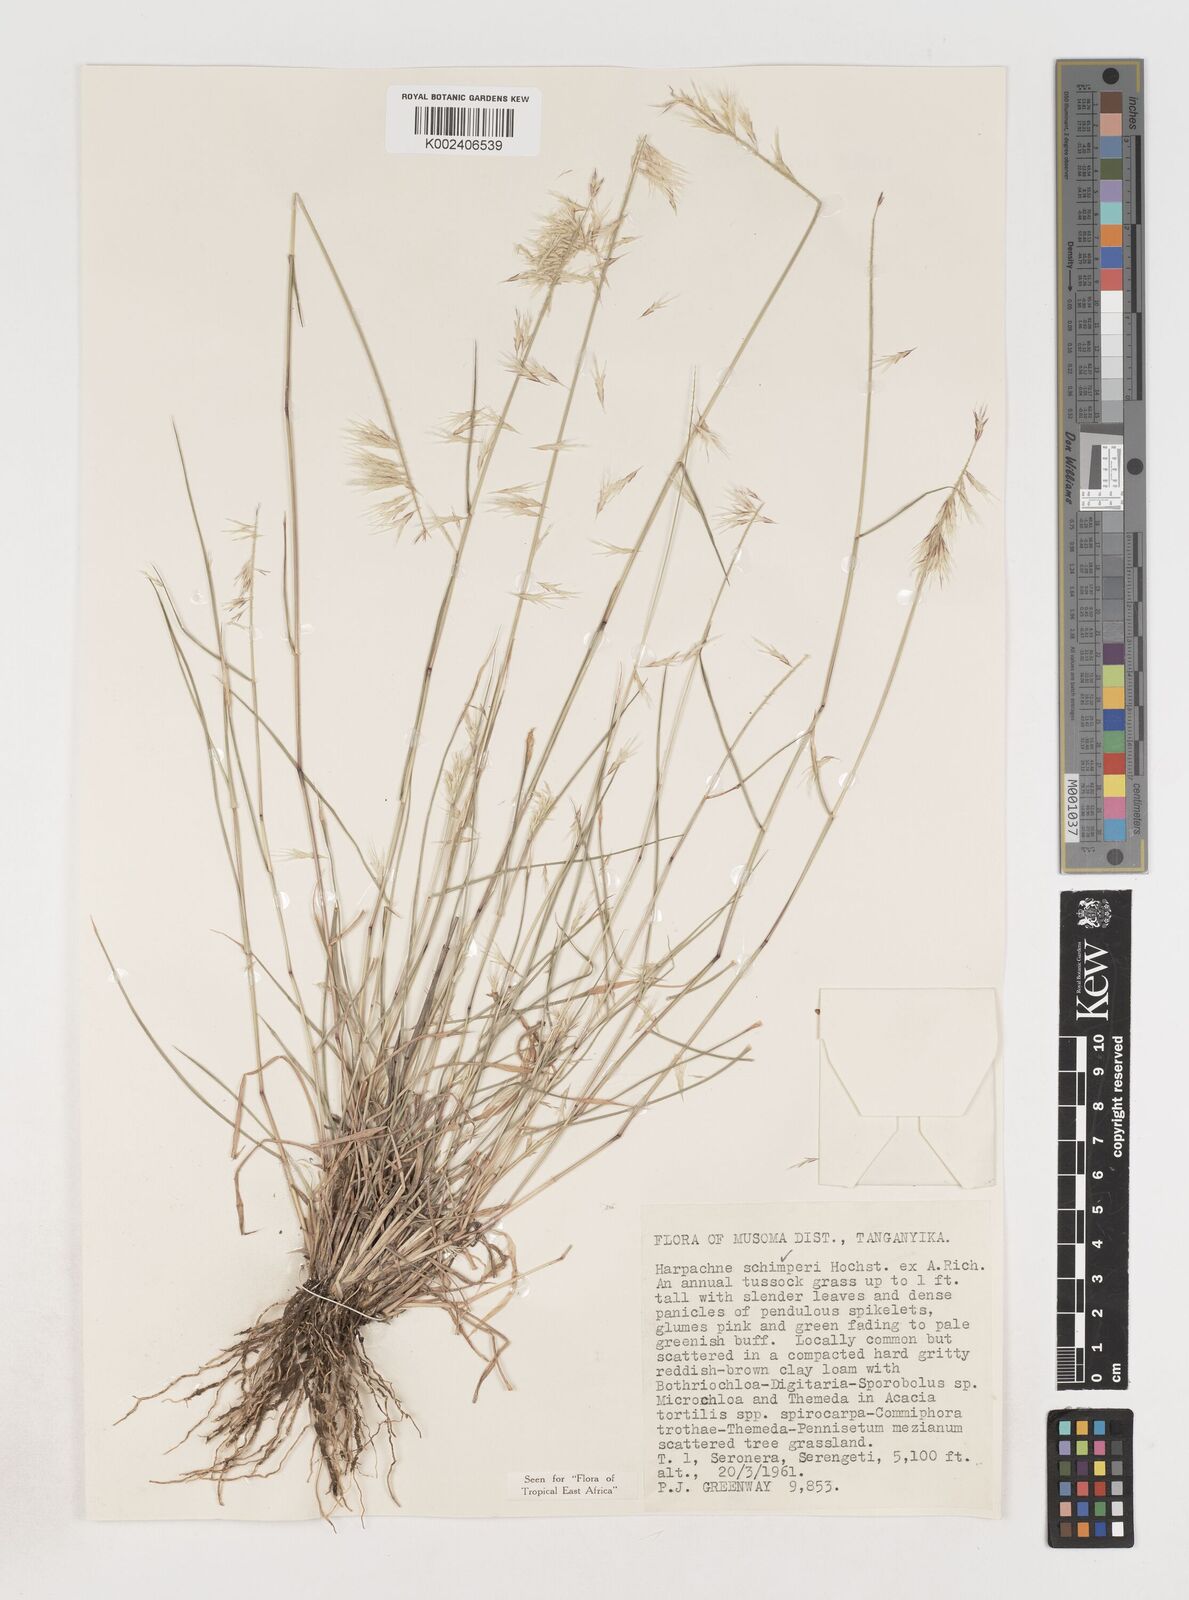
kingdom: Plantae
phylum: Tracheophyta
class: Liliopsida
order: Poales
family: Poaceae
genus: Harpachne
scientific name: Harpachne schimperi
